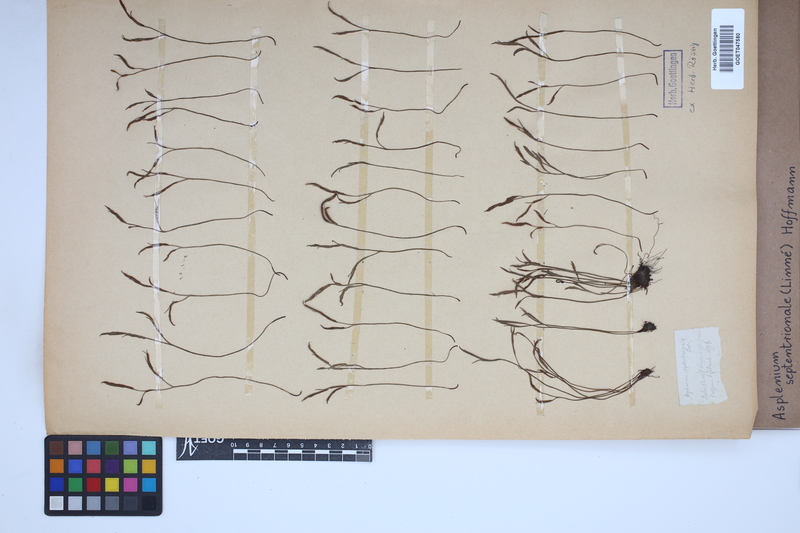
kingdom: Plantae
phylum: Tracheophyta
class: Polypodiopsida
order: Polypodiales
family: Aspleniaceae
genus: Asplenium
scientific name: Asplenium septentrionale
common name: Forked spleenwort
